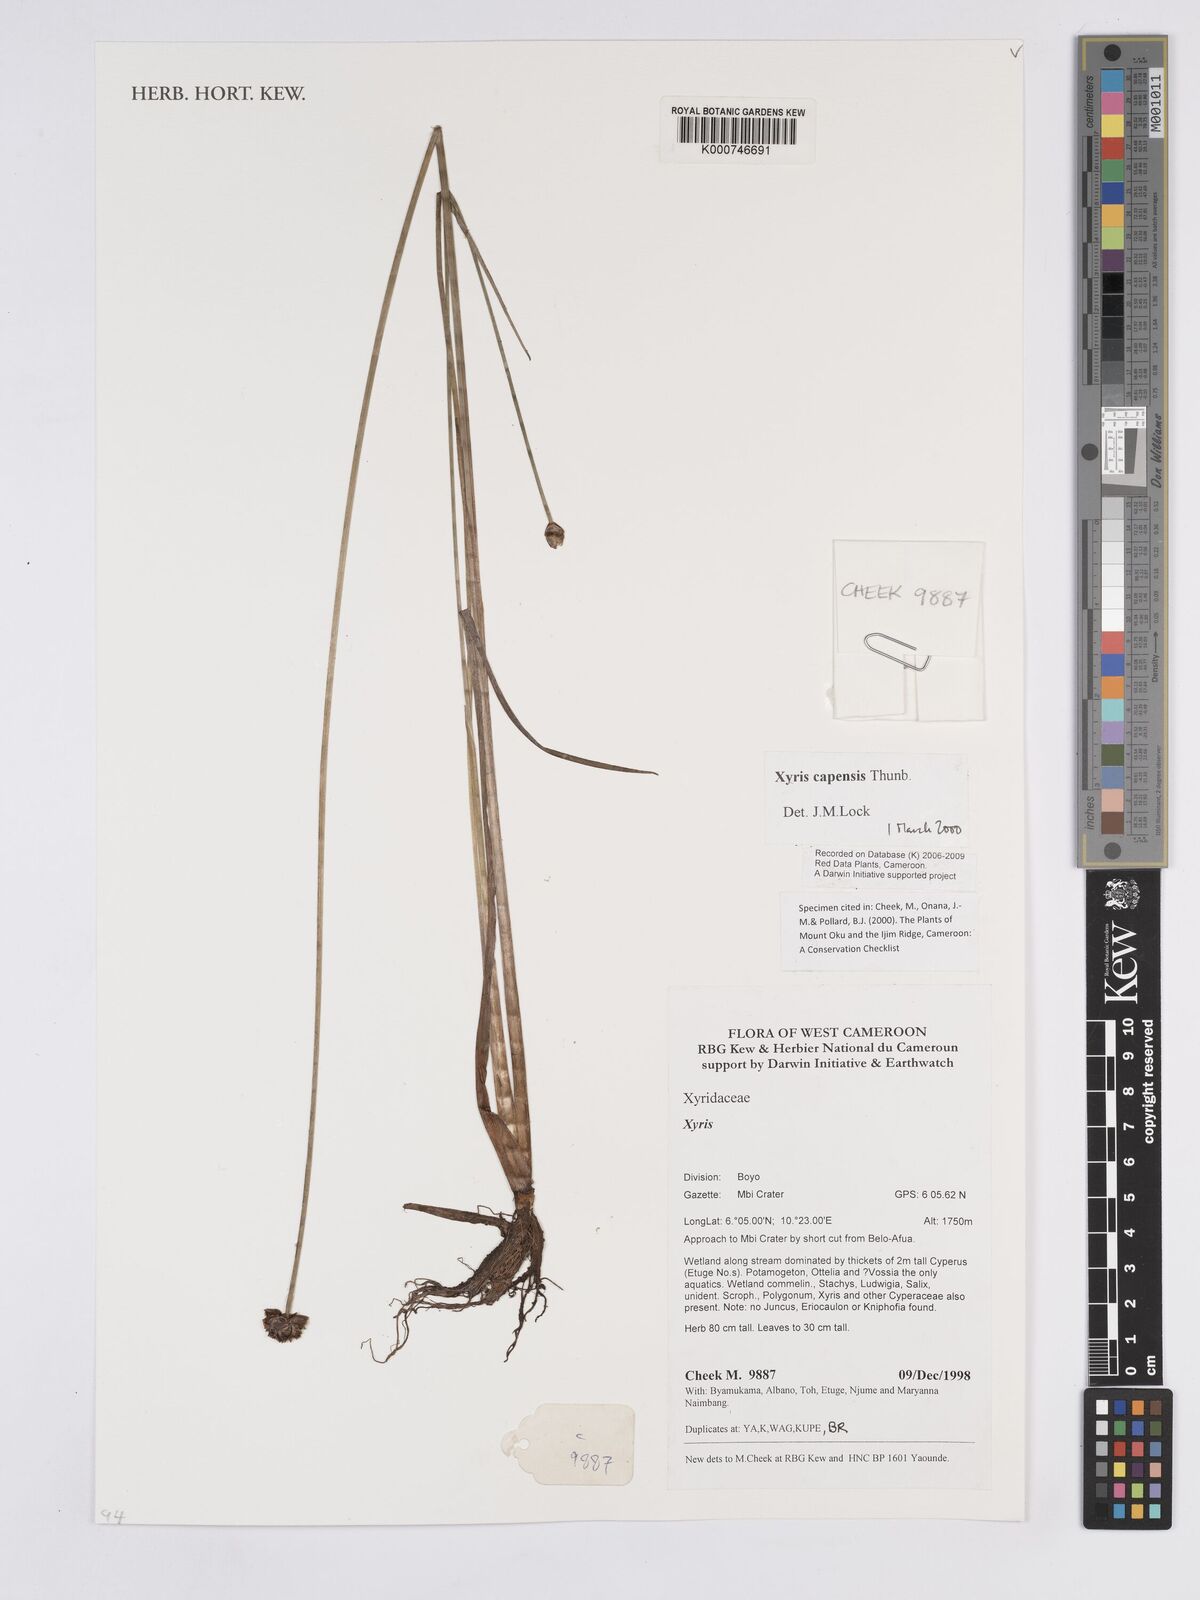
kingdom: Plantae
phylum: Tracheophyta
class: Liliopsida
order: Poales
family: Xyridaceae
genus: Xyris
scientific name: Xyris capensis
